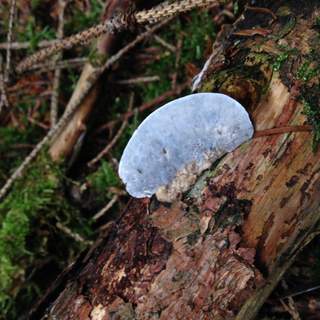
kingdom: Fungi
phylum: Basidiomycota
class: Agaricomycetes
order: Polyporales
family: Polyporaceae
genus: Cyanosporus
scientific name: Cyanosporus caesius
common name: blålig kødporesvamp
